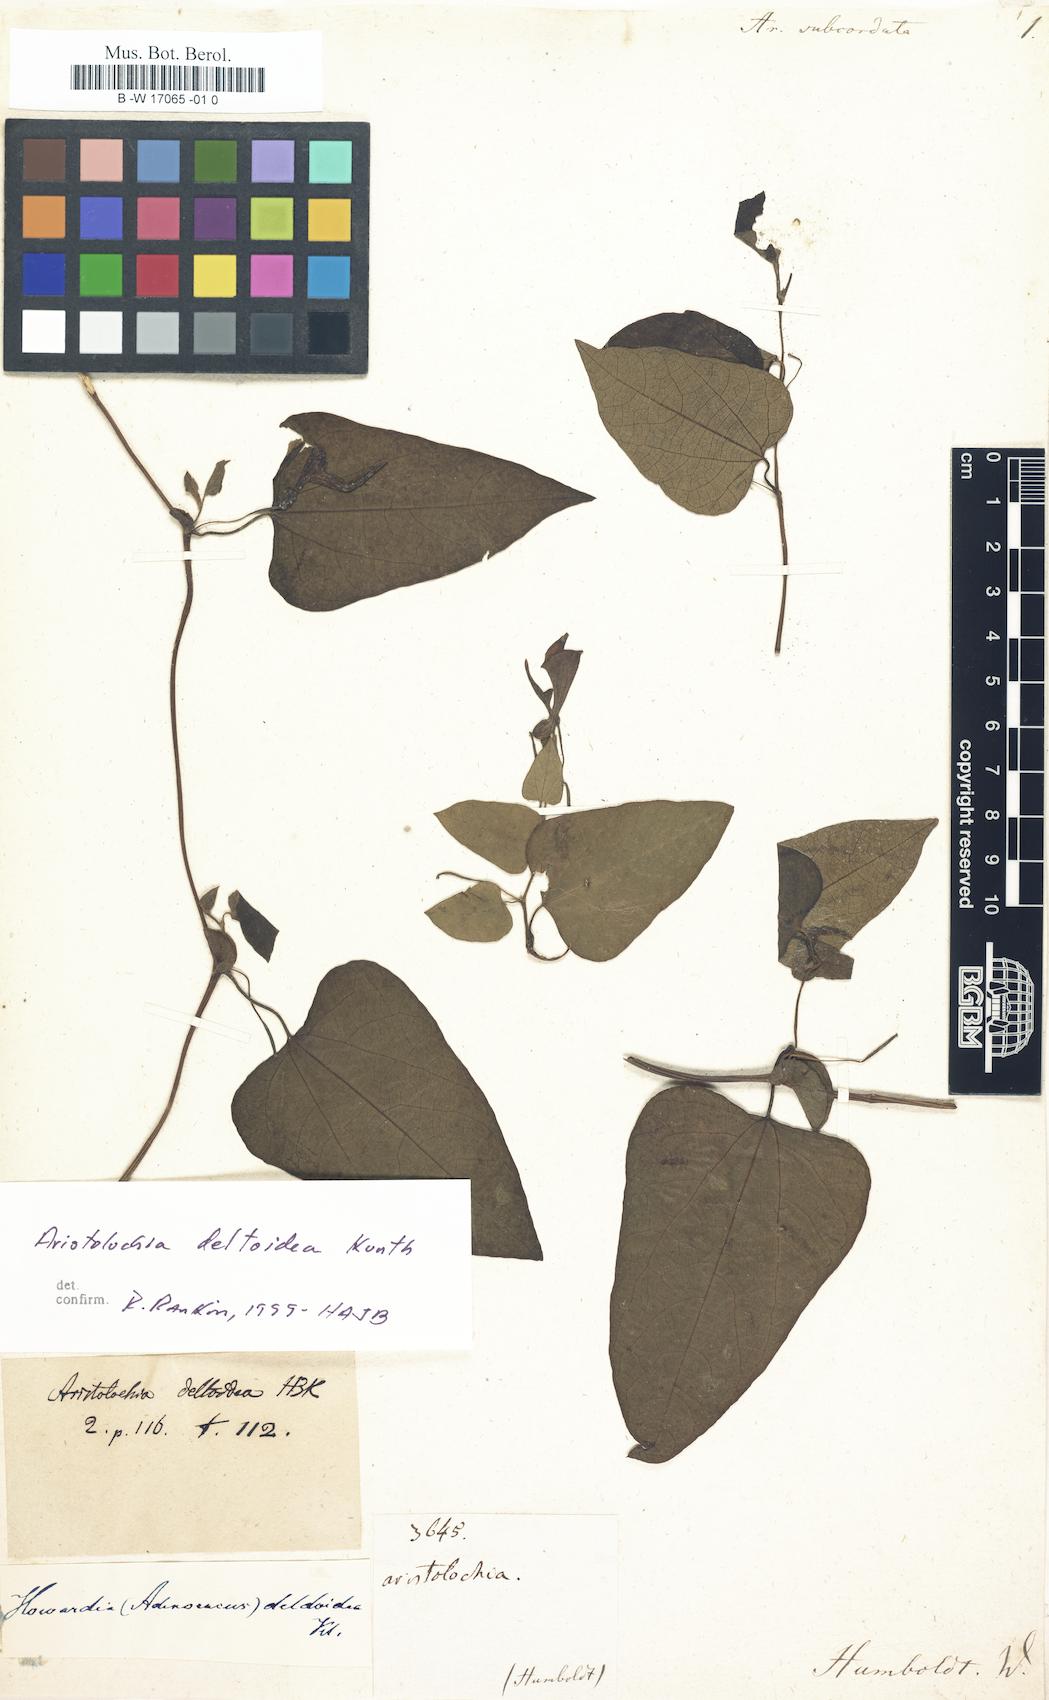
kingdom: Plantae
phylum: Tracheophyta
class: Magnoliopsida
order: Piperales
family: Aristolochiaceae
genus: Aristolochia
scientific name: Aristolochia deltoidea
